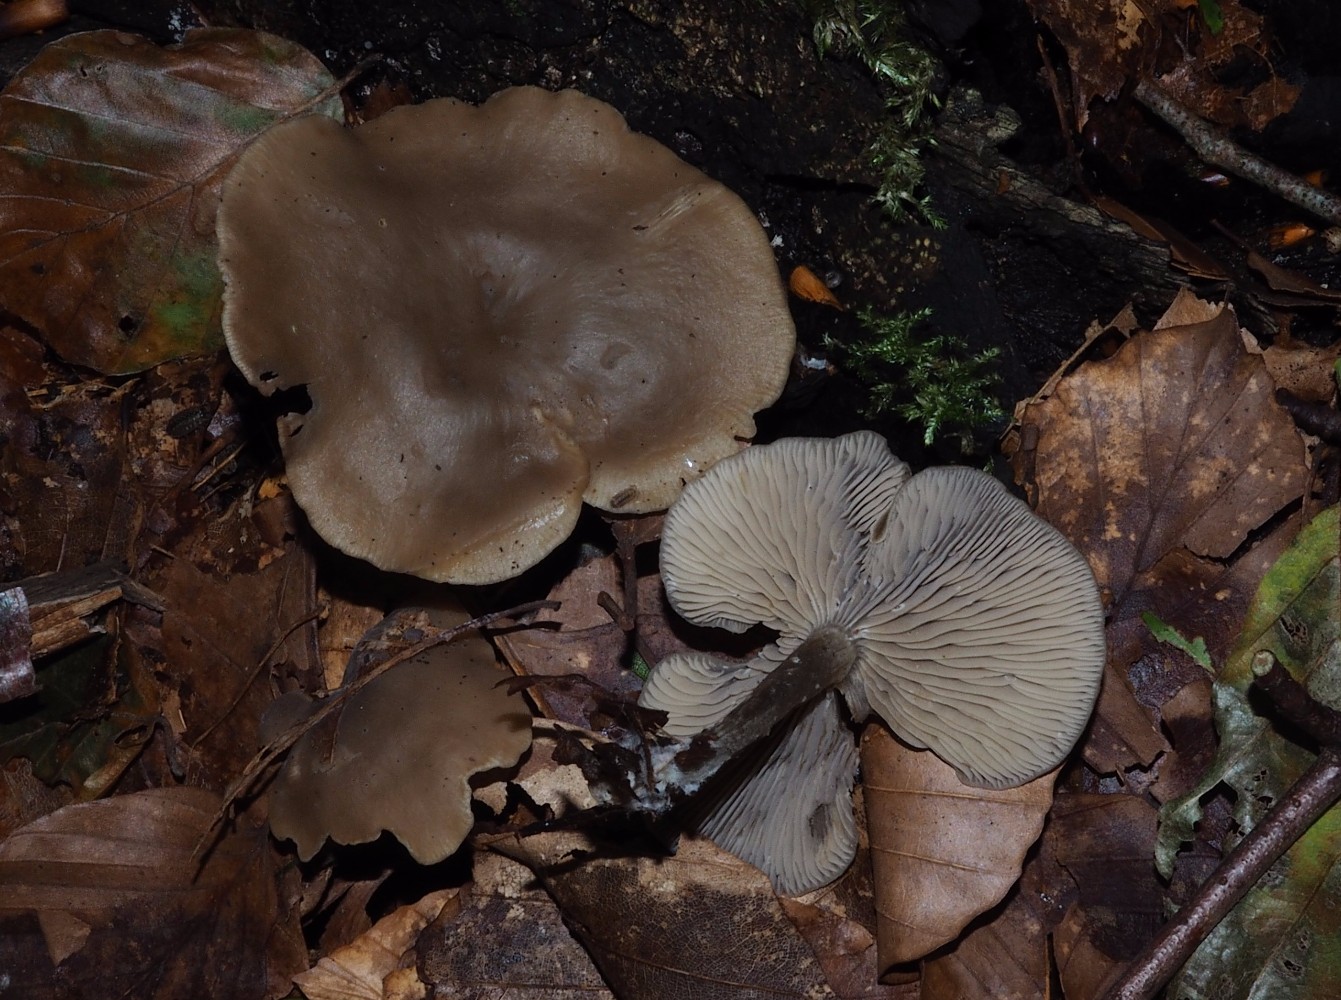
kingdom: Fungi
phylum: Basidiomycota
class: Agaricomycetes
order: Agaricales
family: Tricholomataceae
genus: Clitocybe
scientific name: Clitocybe
